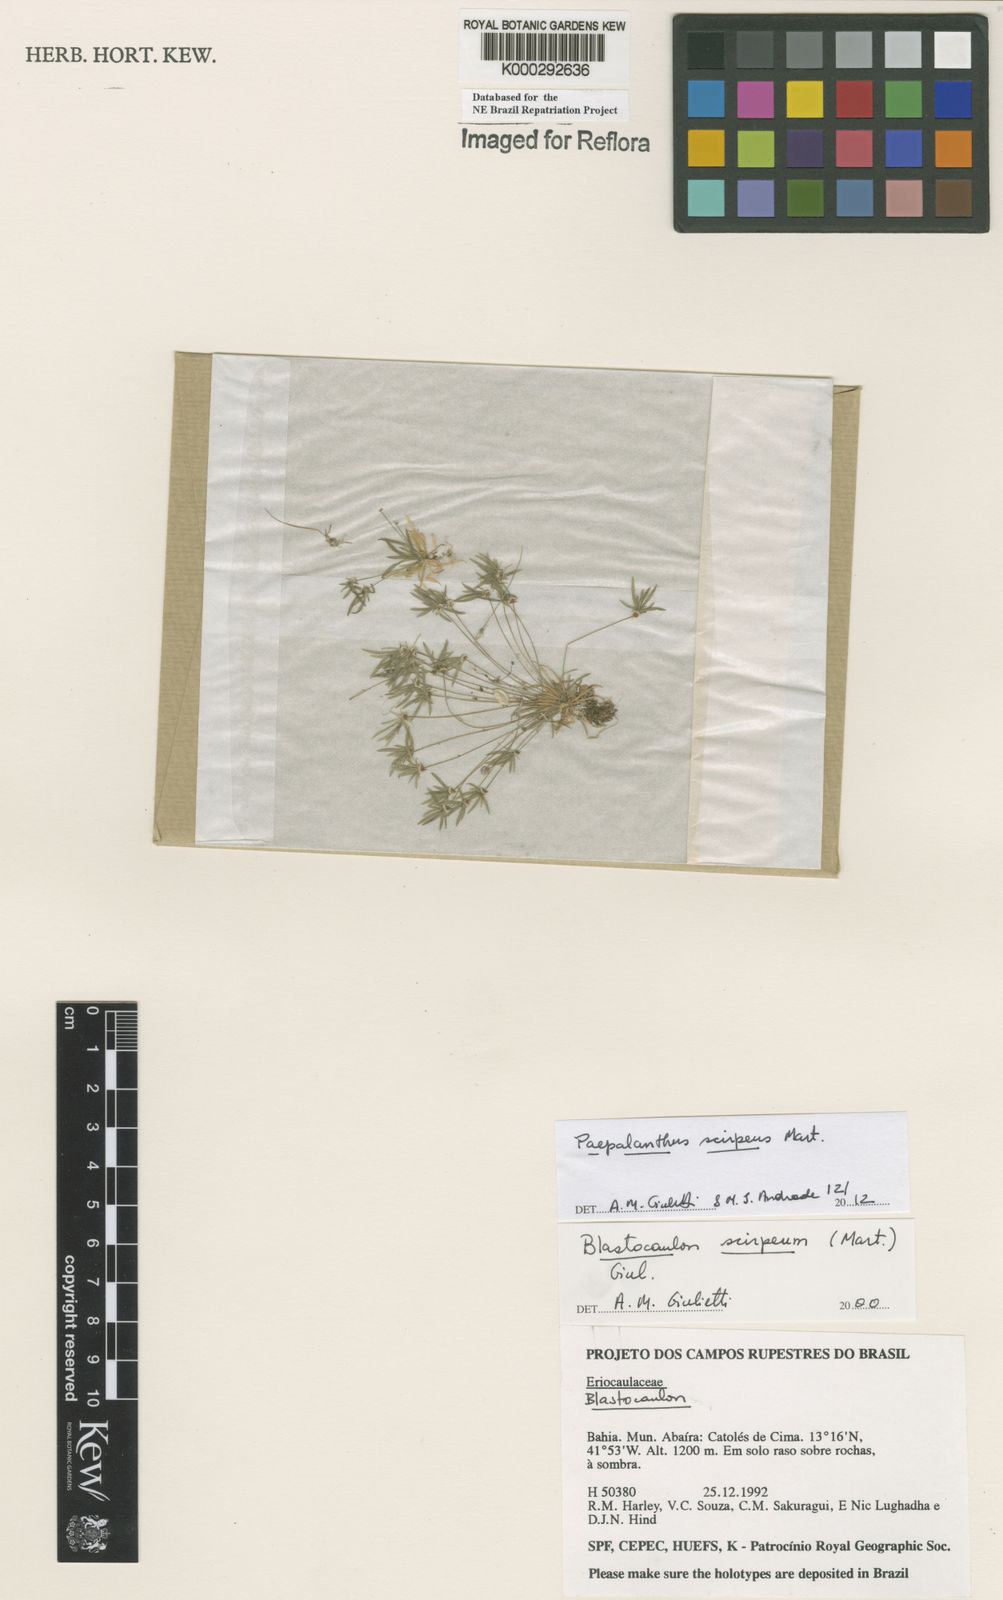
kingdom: Plantae
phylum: Tracheophyta
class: Liliopsida
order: Poales
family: Eriocaulaceae
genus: Paepalanthus
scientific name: Paepalanthus scirpeus
